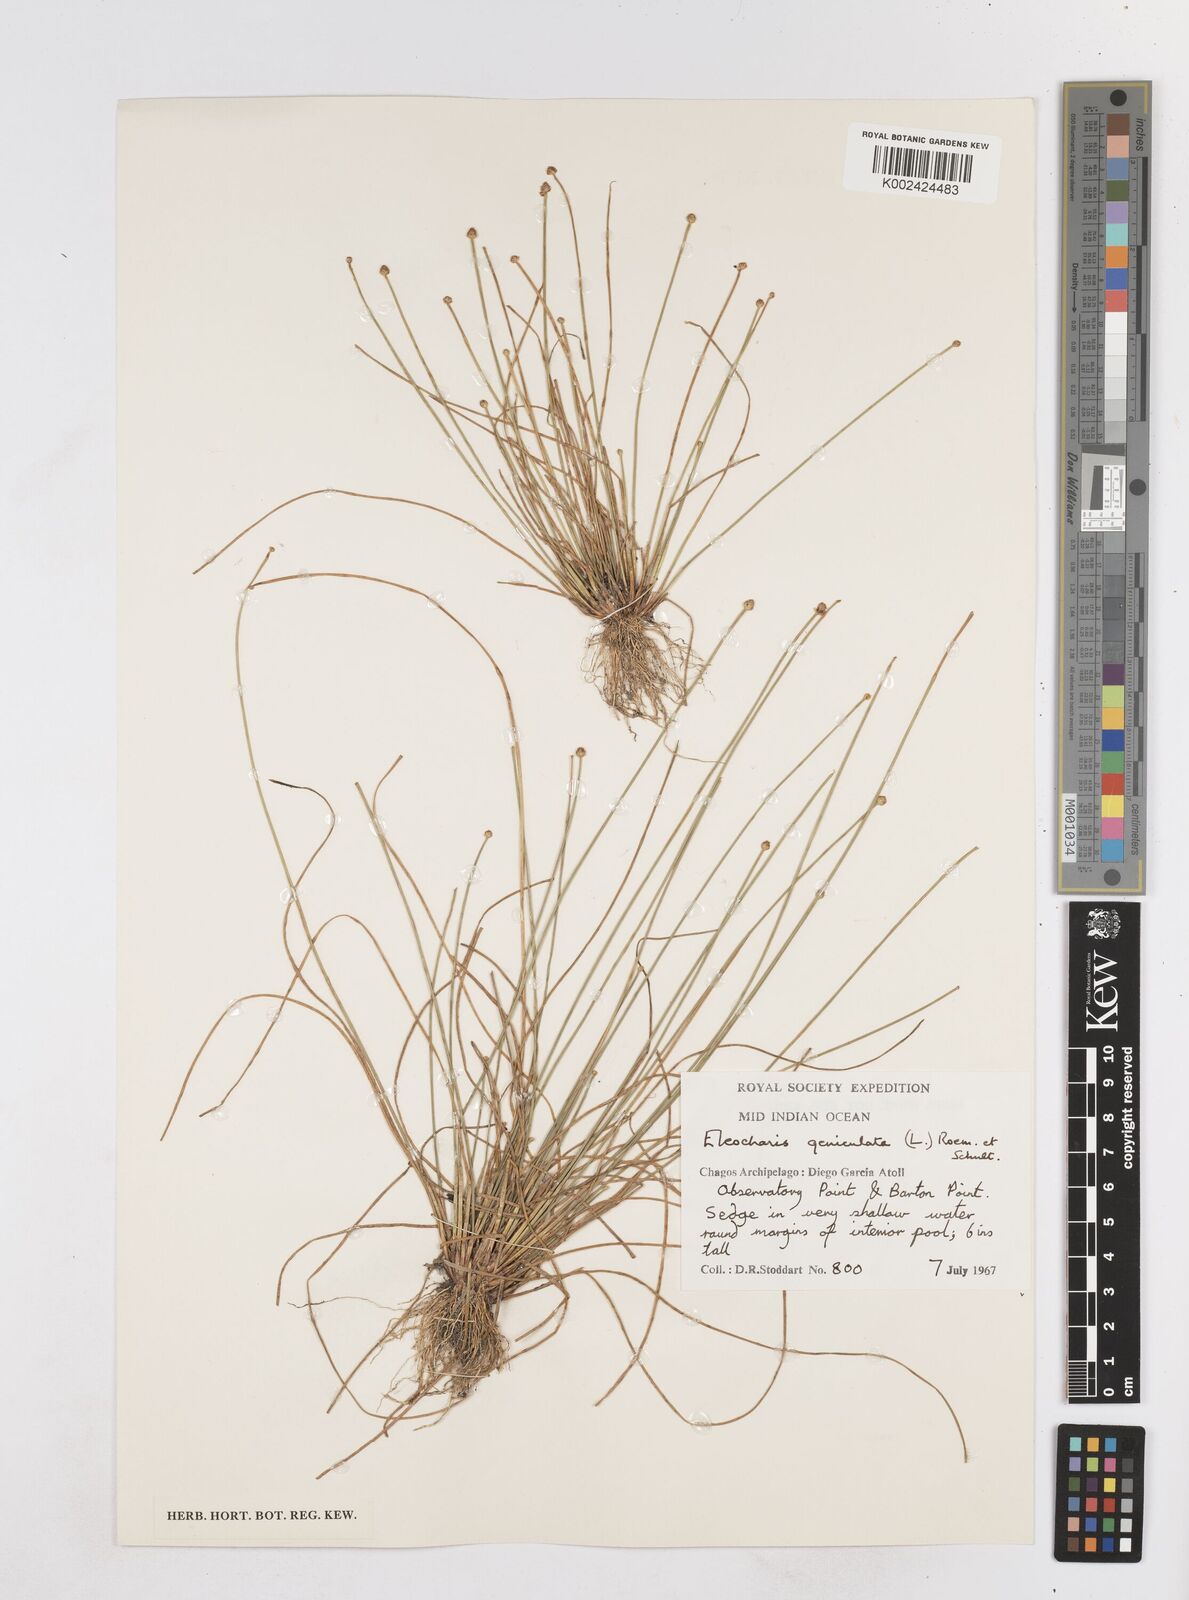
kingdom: Plantae
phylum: Tracheophyta
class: Liliopsida
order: Poales
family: Cyperaceae
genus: Eleocharis
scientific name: Eleocharis geniculata
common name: Canada spikesedge
